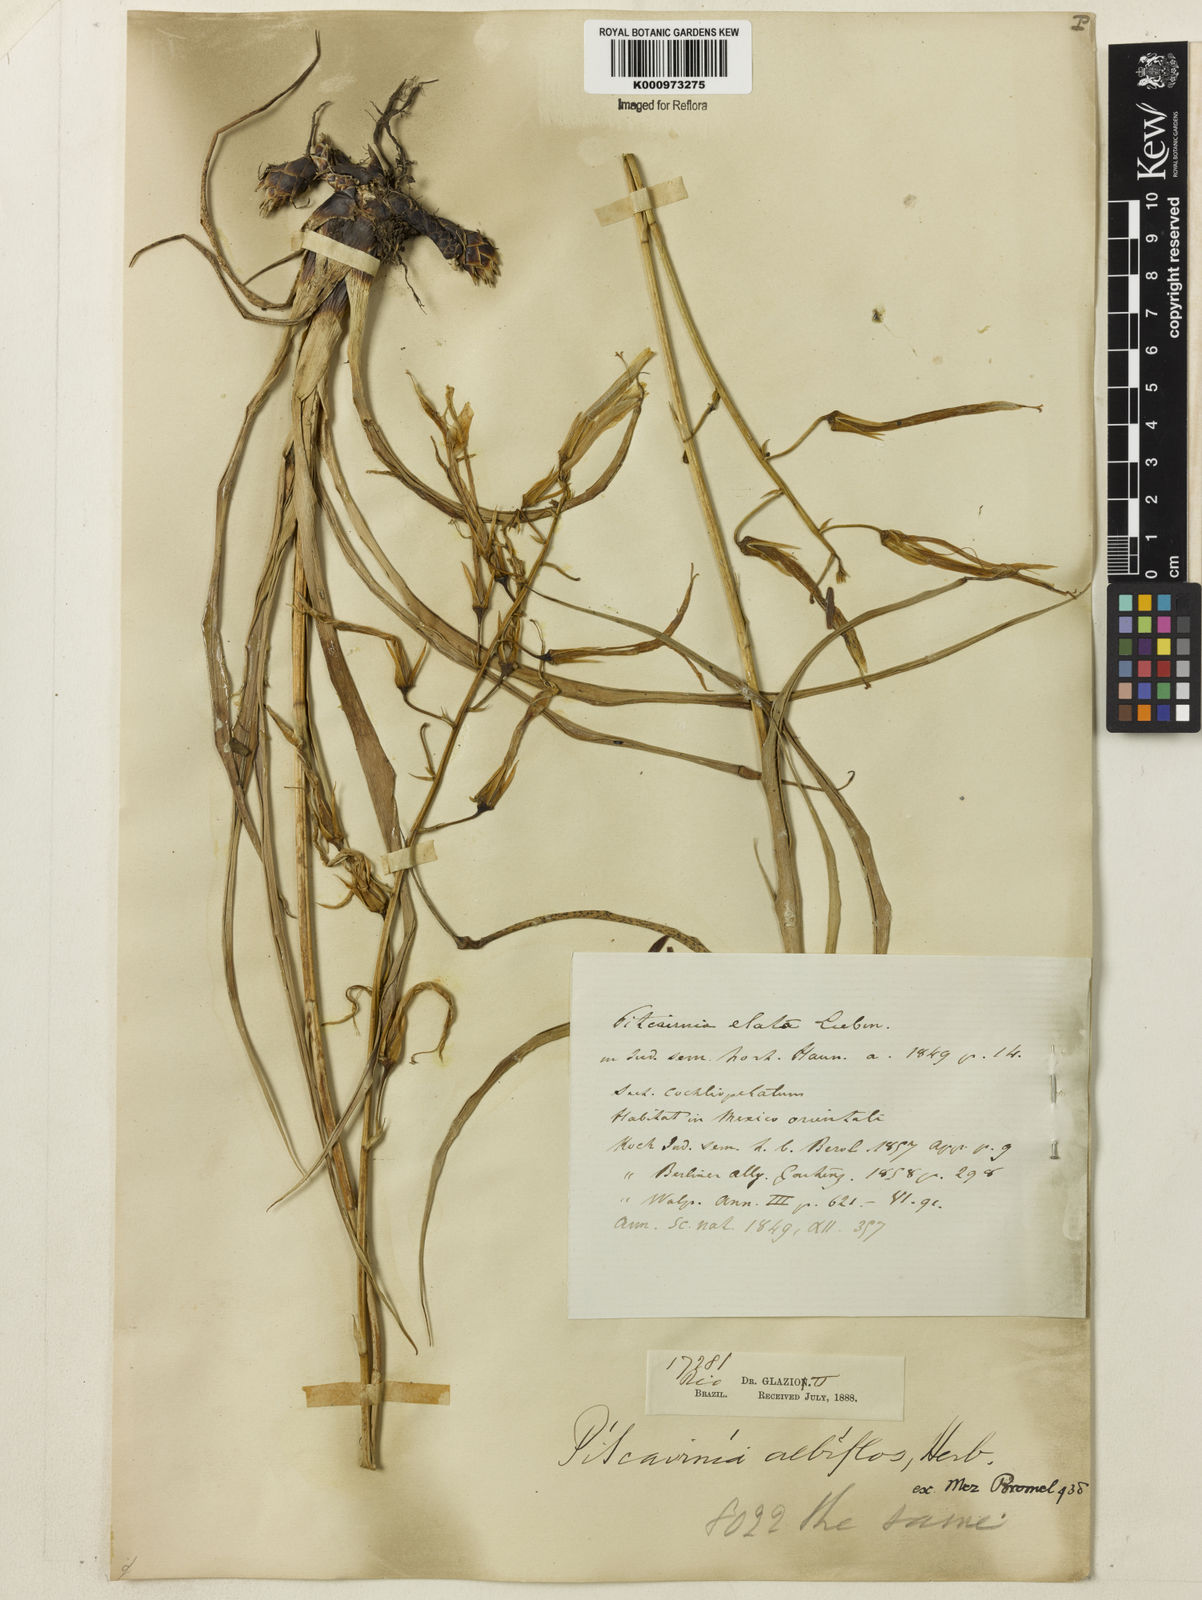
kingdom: Plantae
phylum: Tracheophyta
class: Liliopsida
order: Poales
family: Bromeliaceae
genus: Pitcairnia
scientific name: Pitcairnia albiflos
